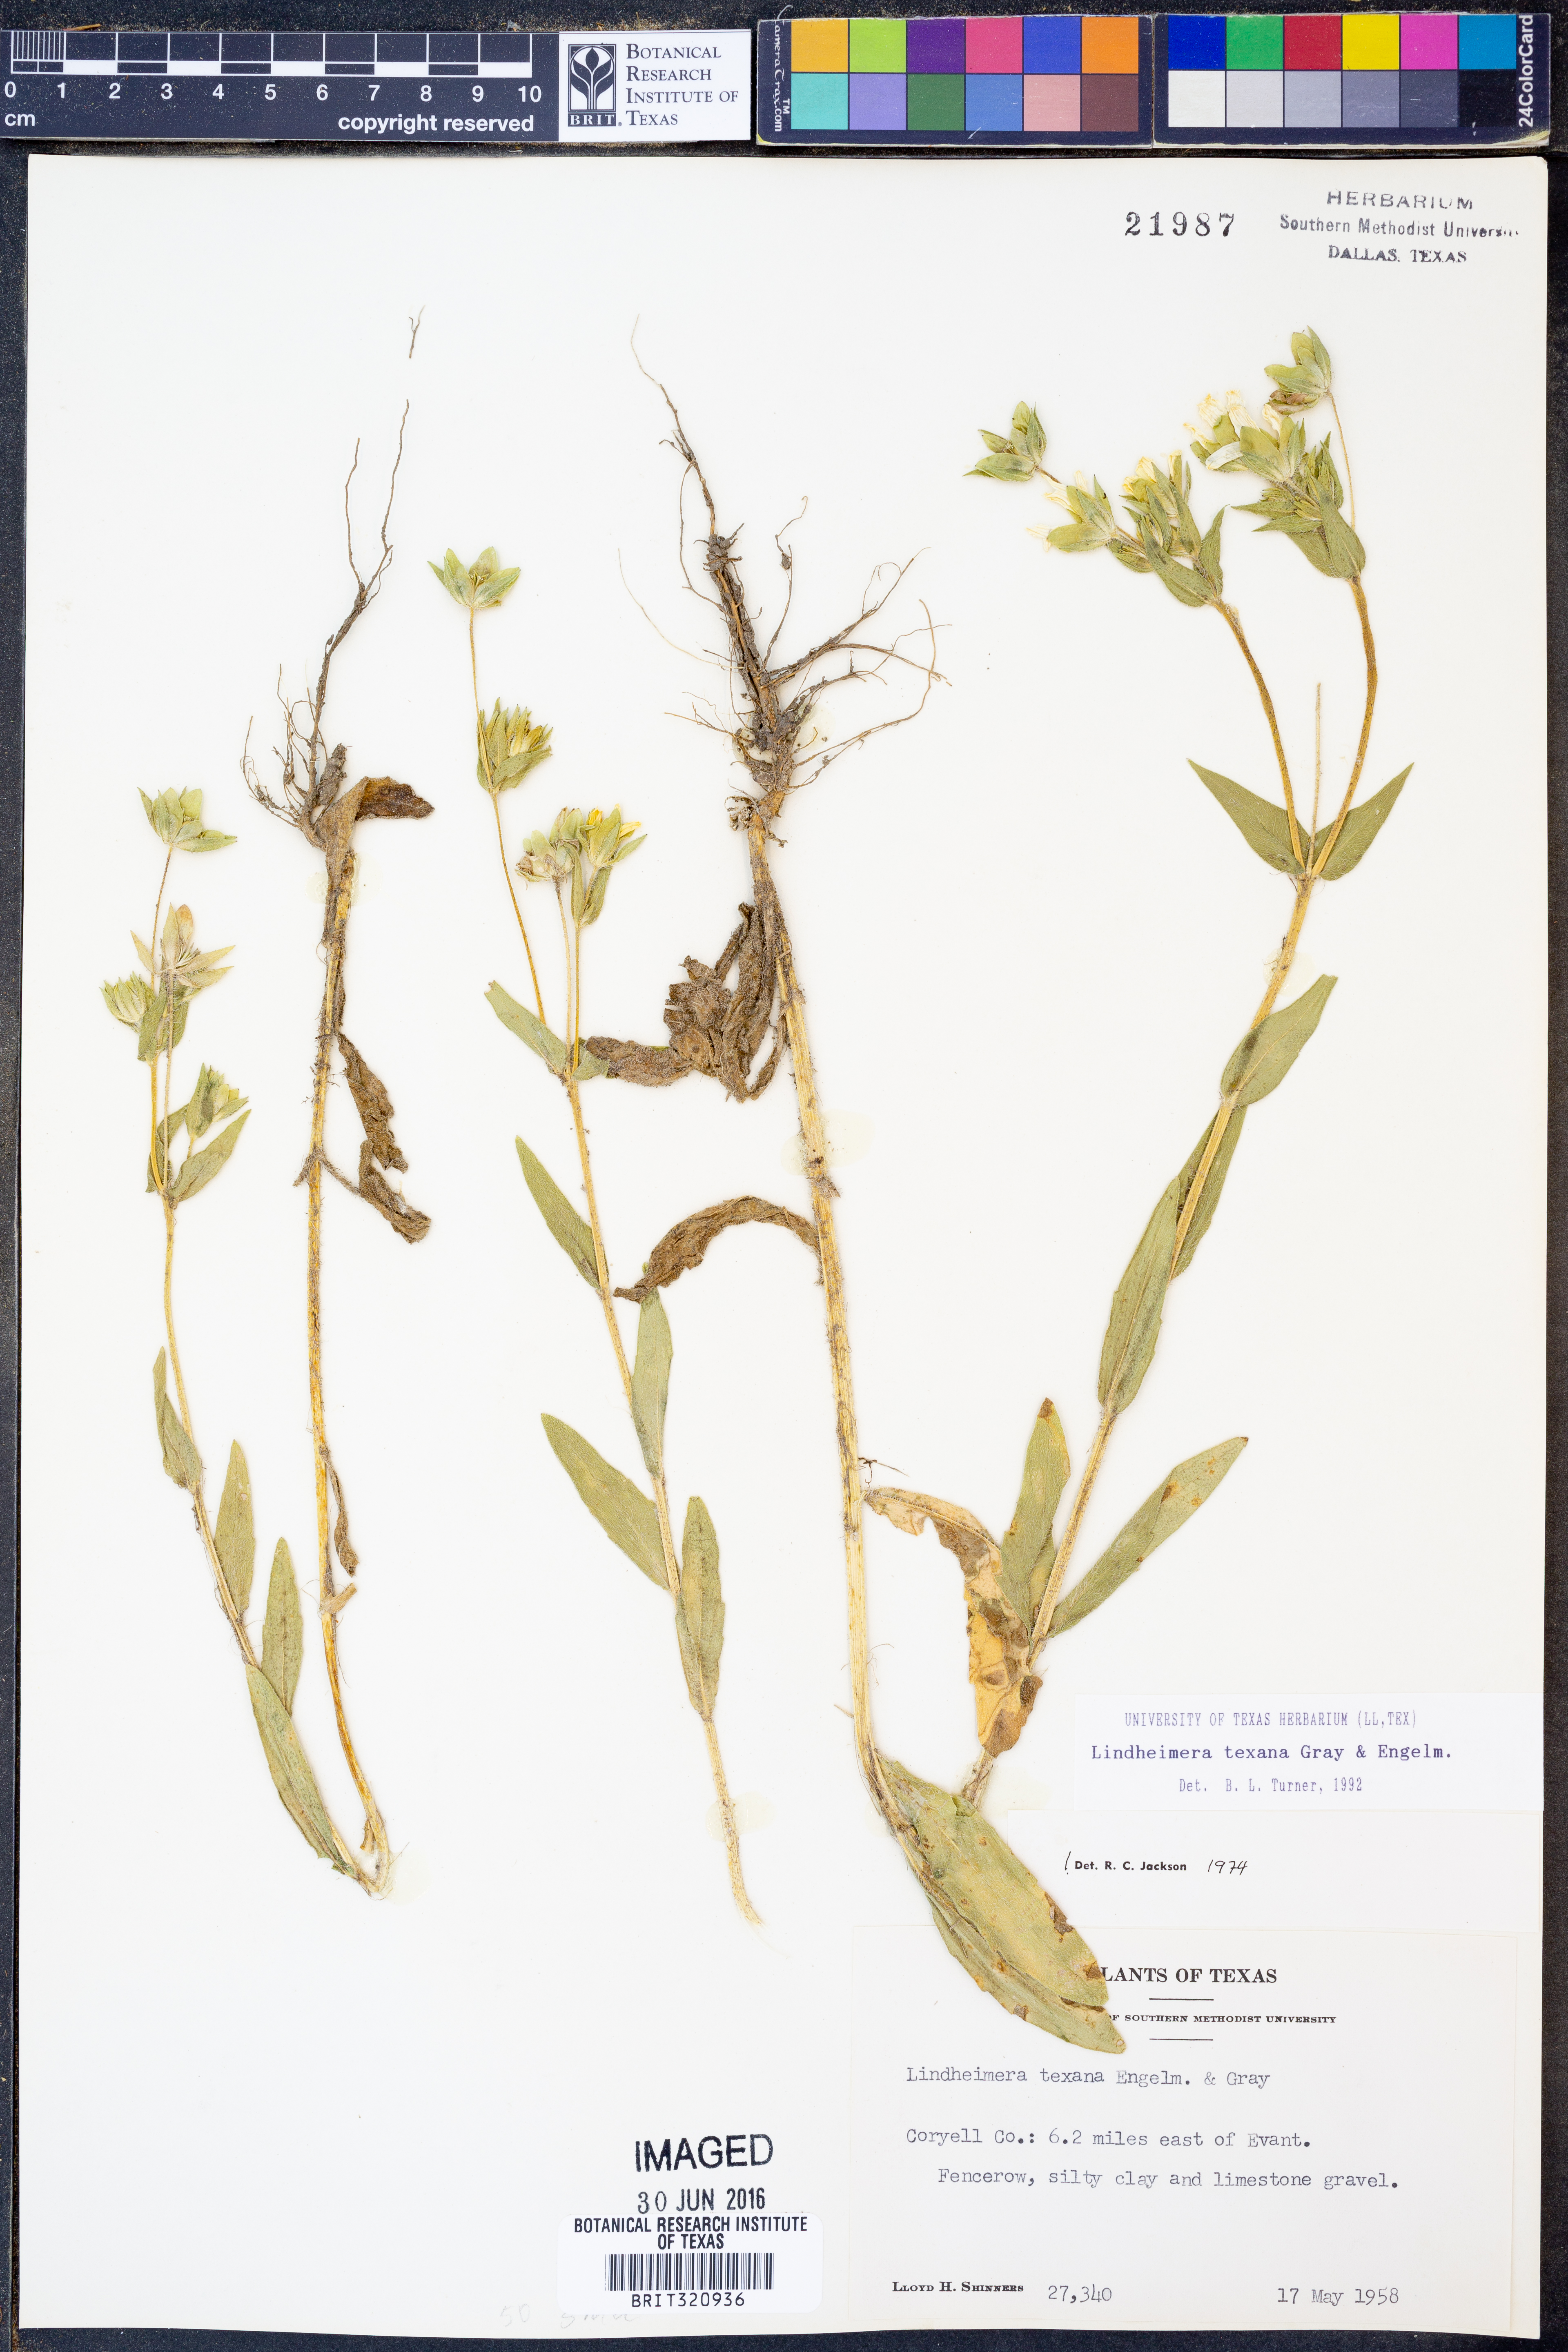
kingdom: Plantae
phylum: Tracheophyta
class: Magnoliopsida
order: Asterales
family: Asteraceae
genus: Lindheimera
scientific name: Lindheimera texana
